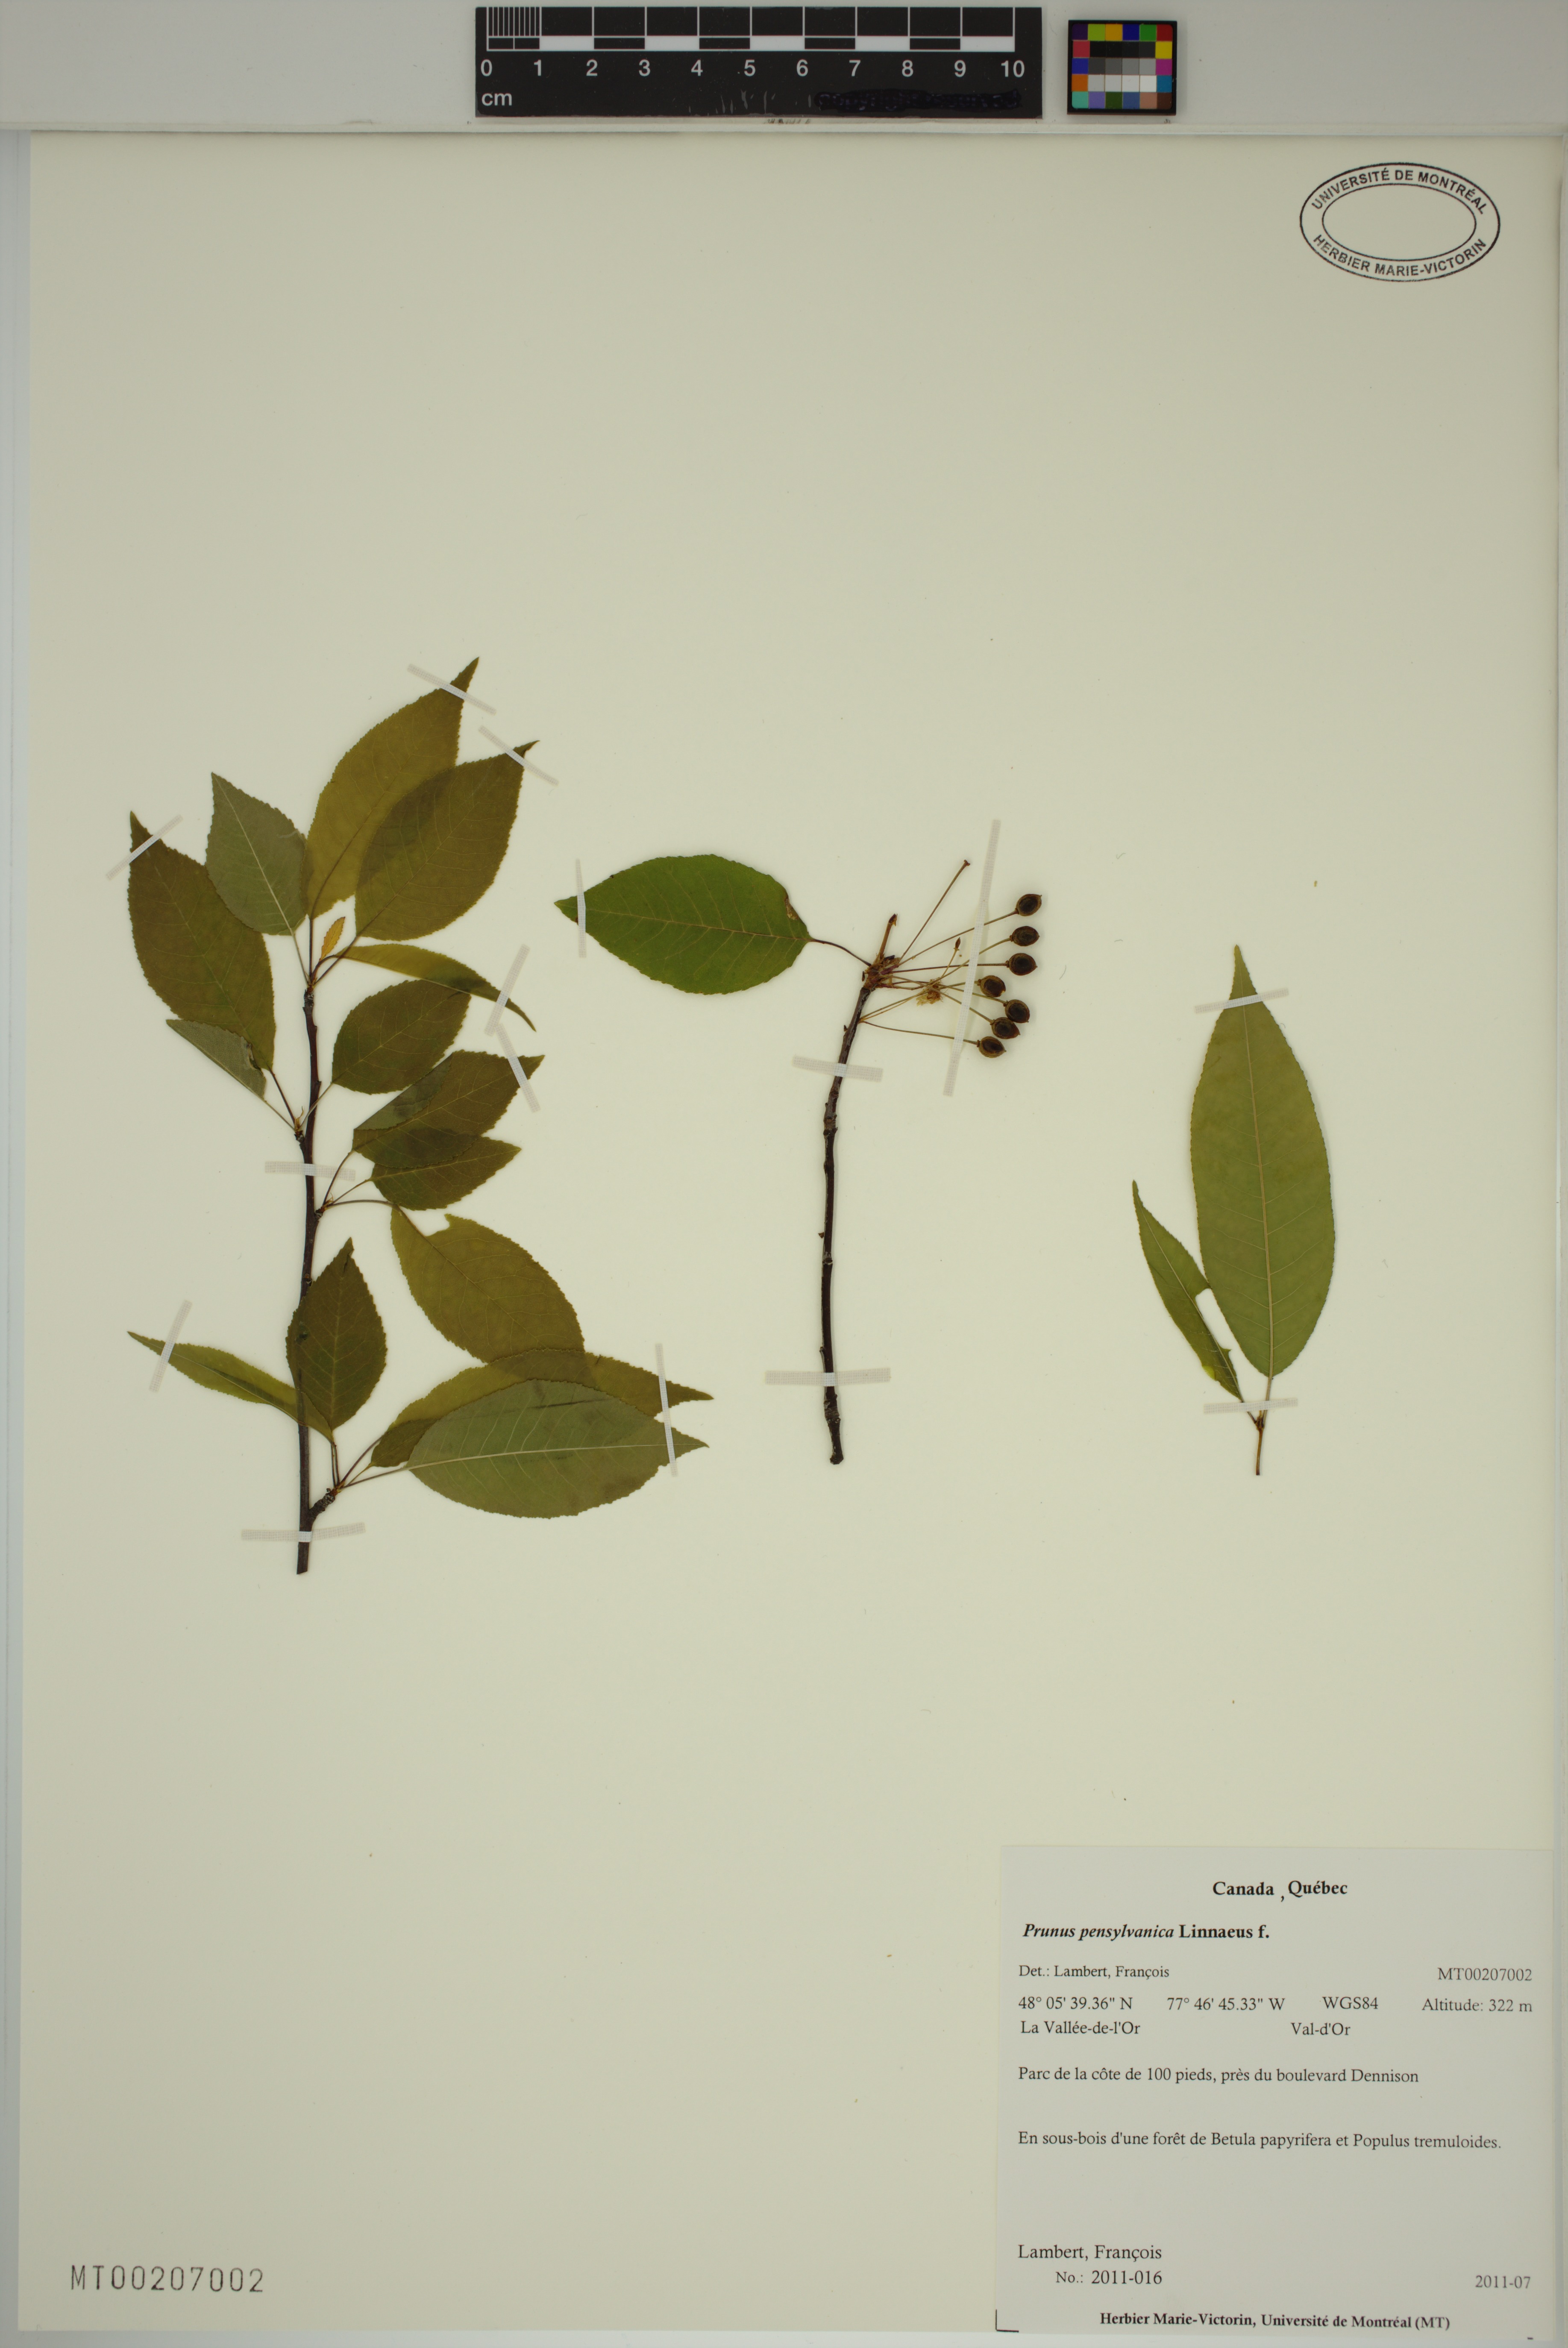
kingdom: Plantae
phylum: Tracheophyta
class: Magnoliopsida
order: Rosales
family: Rosaceae
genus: Prunus
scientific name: Prunus pensylvanica
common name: Pin cherry
